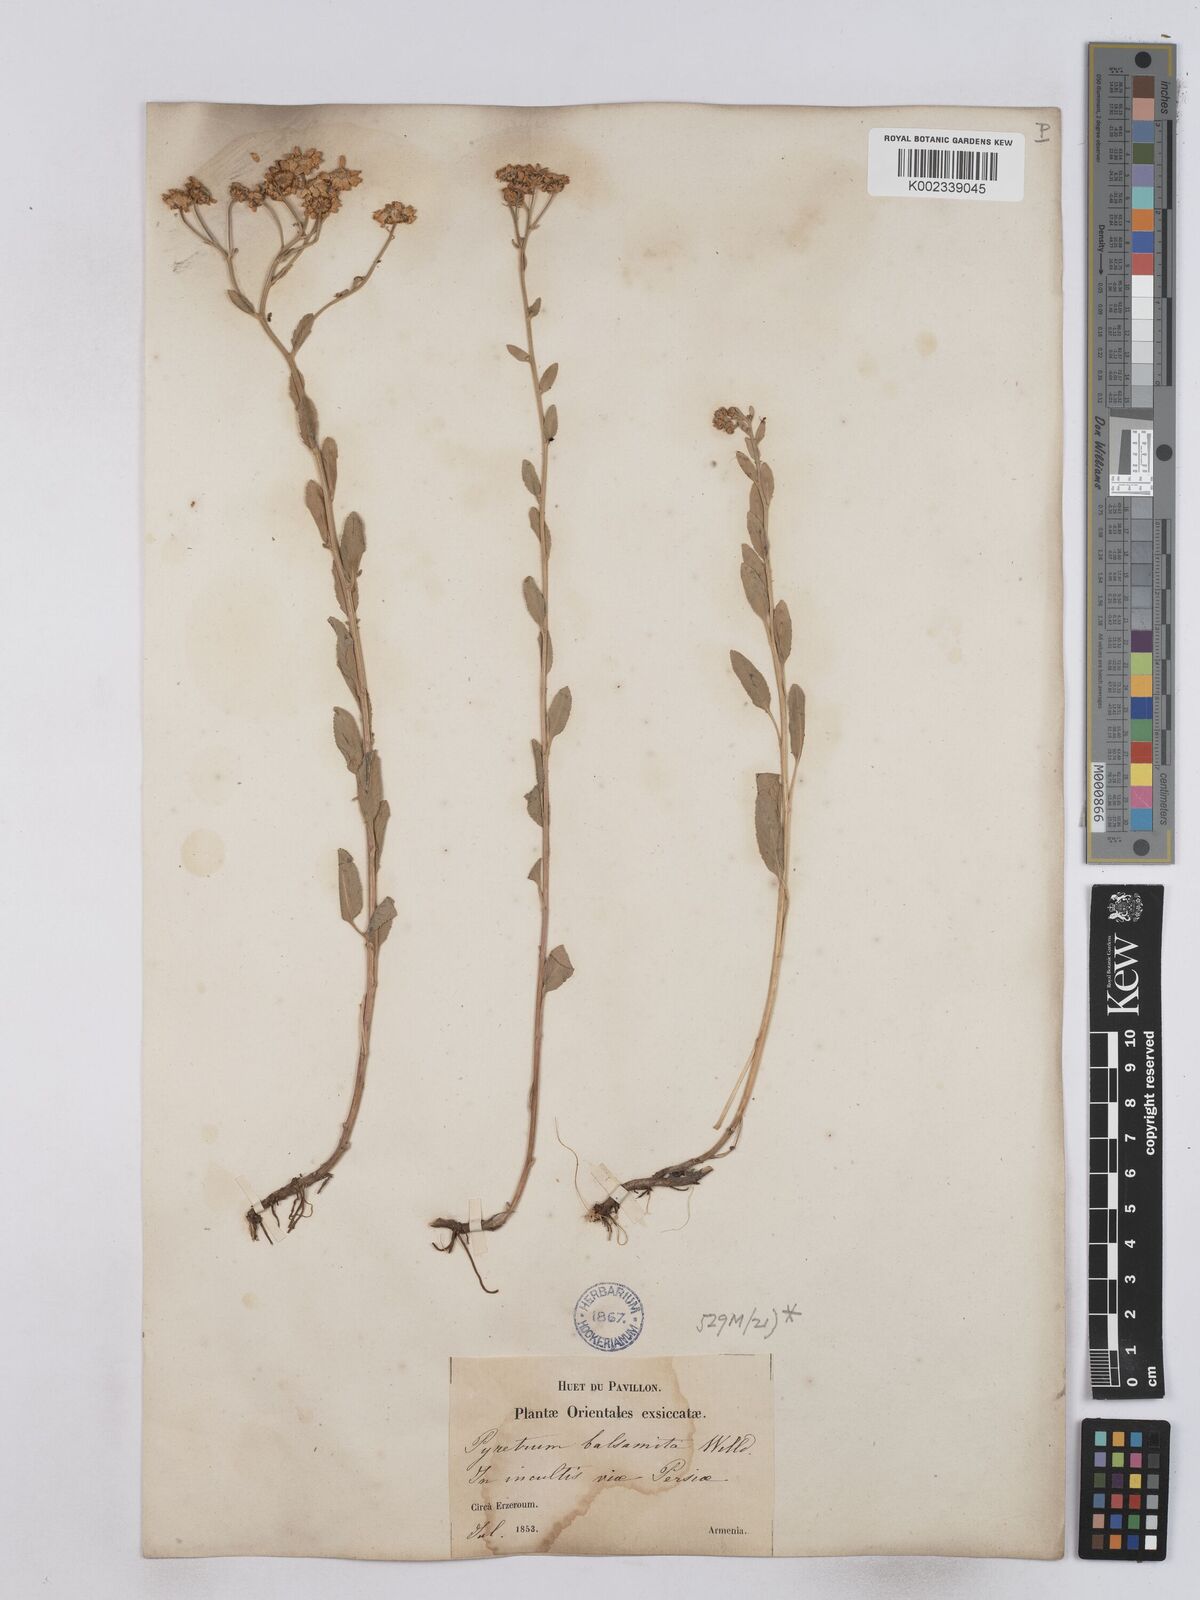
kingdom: Plantae
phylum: Tracheophyta
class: Magnoliopsida
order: Asterales
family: Asteraceae
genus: Tanacetum
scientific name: Tanacetum balsamita
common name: Costmary
